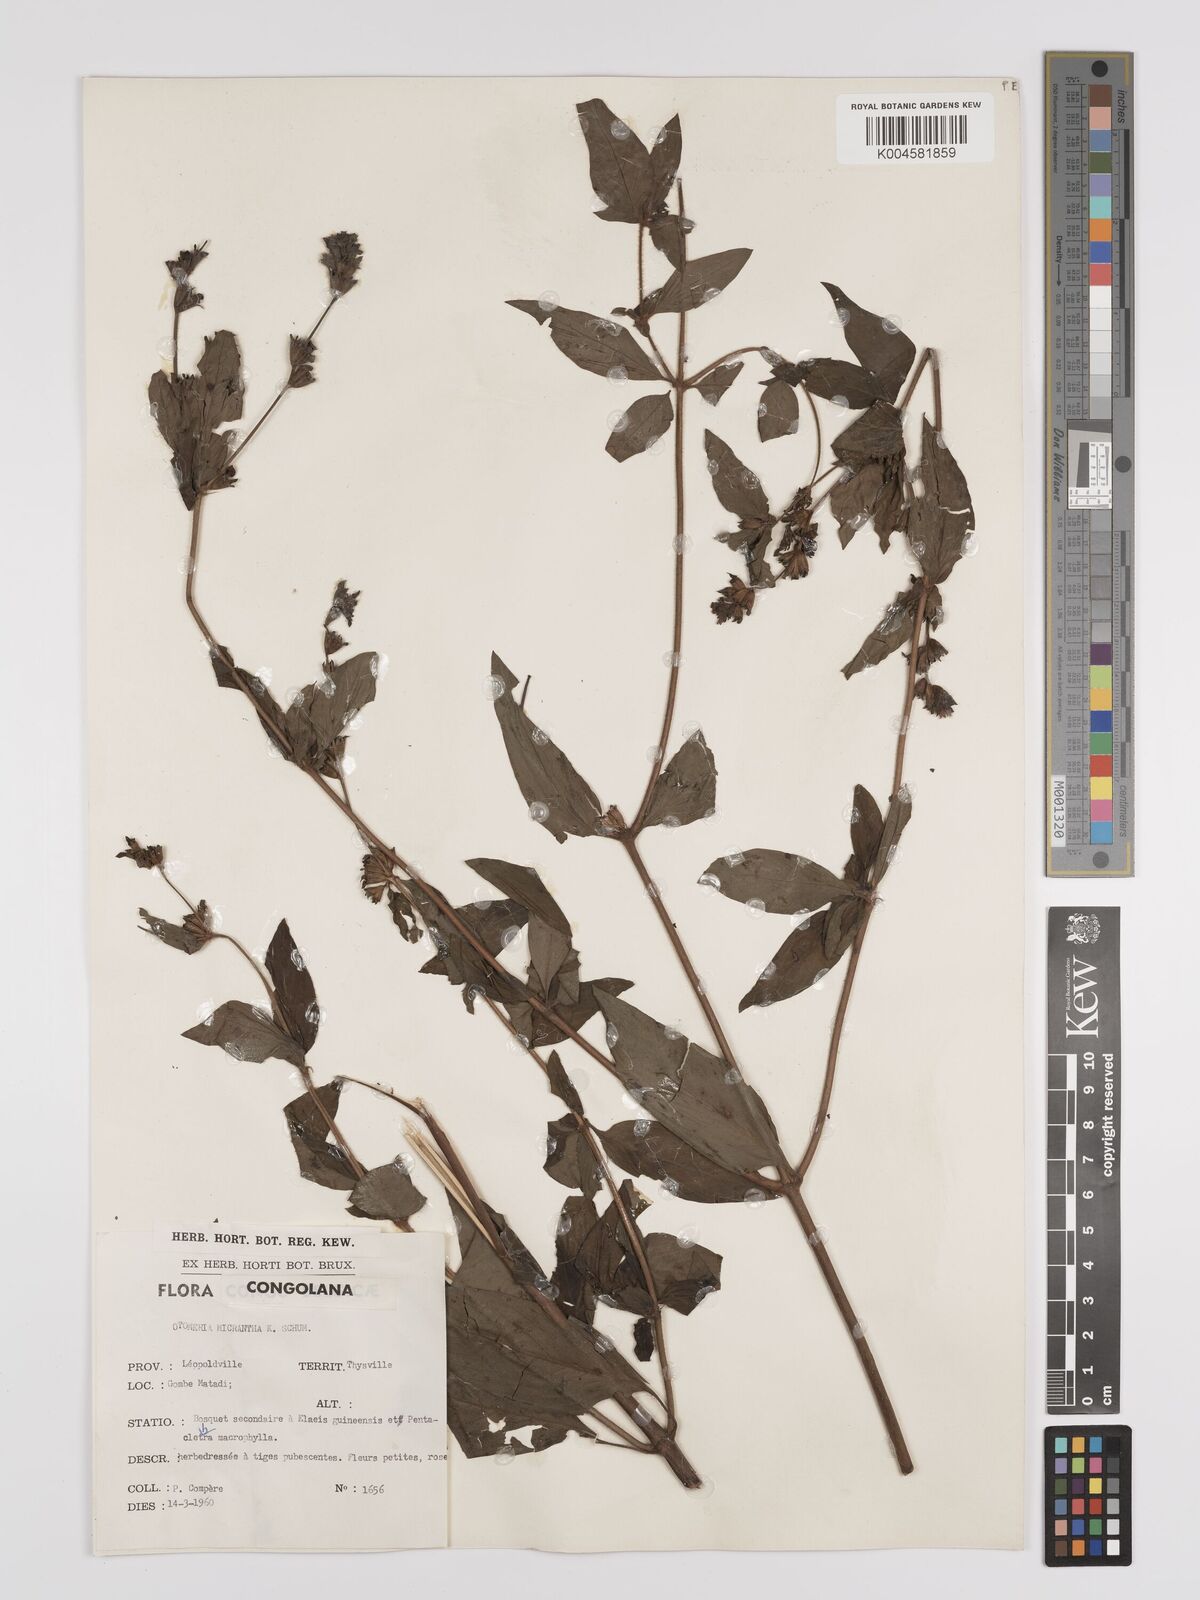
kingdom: Plantae
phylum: Tracheophyta
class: Magnoliopsida
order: Gentianales
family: Rubiaceae
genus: Otomeria
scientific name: Otomeria micrantha
